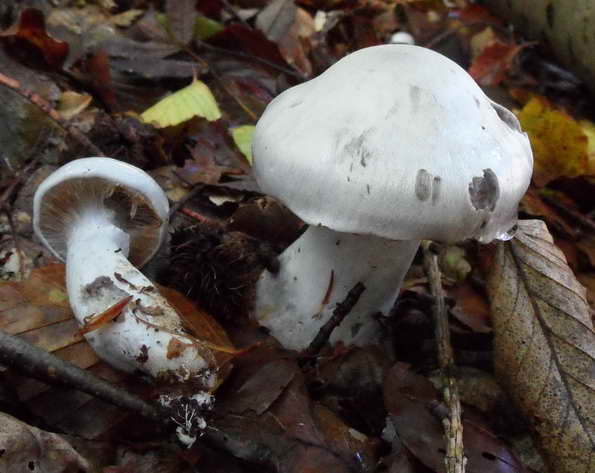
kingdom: Fungi
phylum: Basidiomycota
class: Agaricomycetes
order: Agaricales
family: Cortinariaceae
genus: Cortinarius
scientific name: Cortinarius alboviolaceus
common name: lysviolet slørhat
